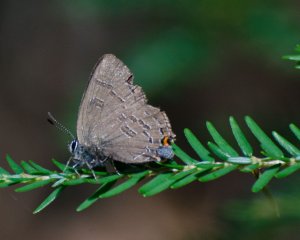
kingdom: Animalia
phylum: Arthropoda
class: Insecta
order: Lepidoptera
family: Lycaenidae
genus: Satyrium
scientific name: Satyrium calanus
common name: Banded Hairstreak
